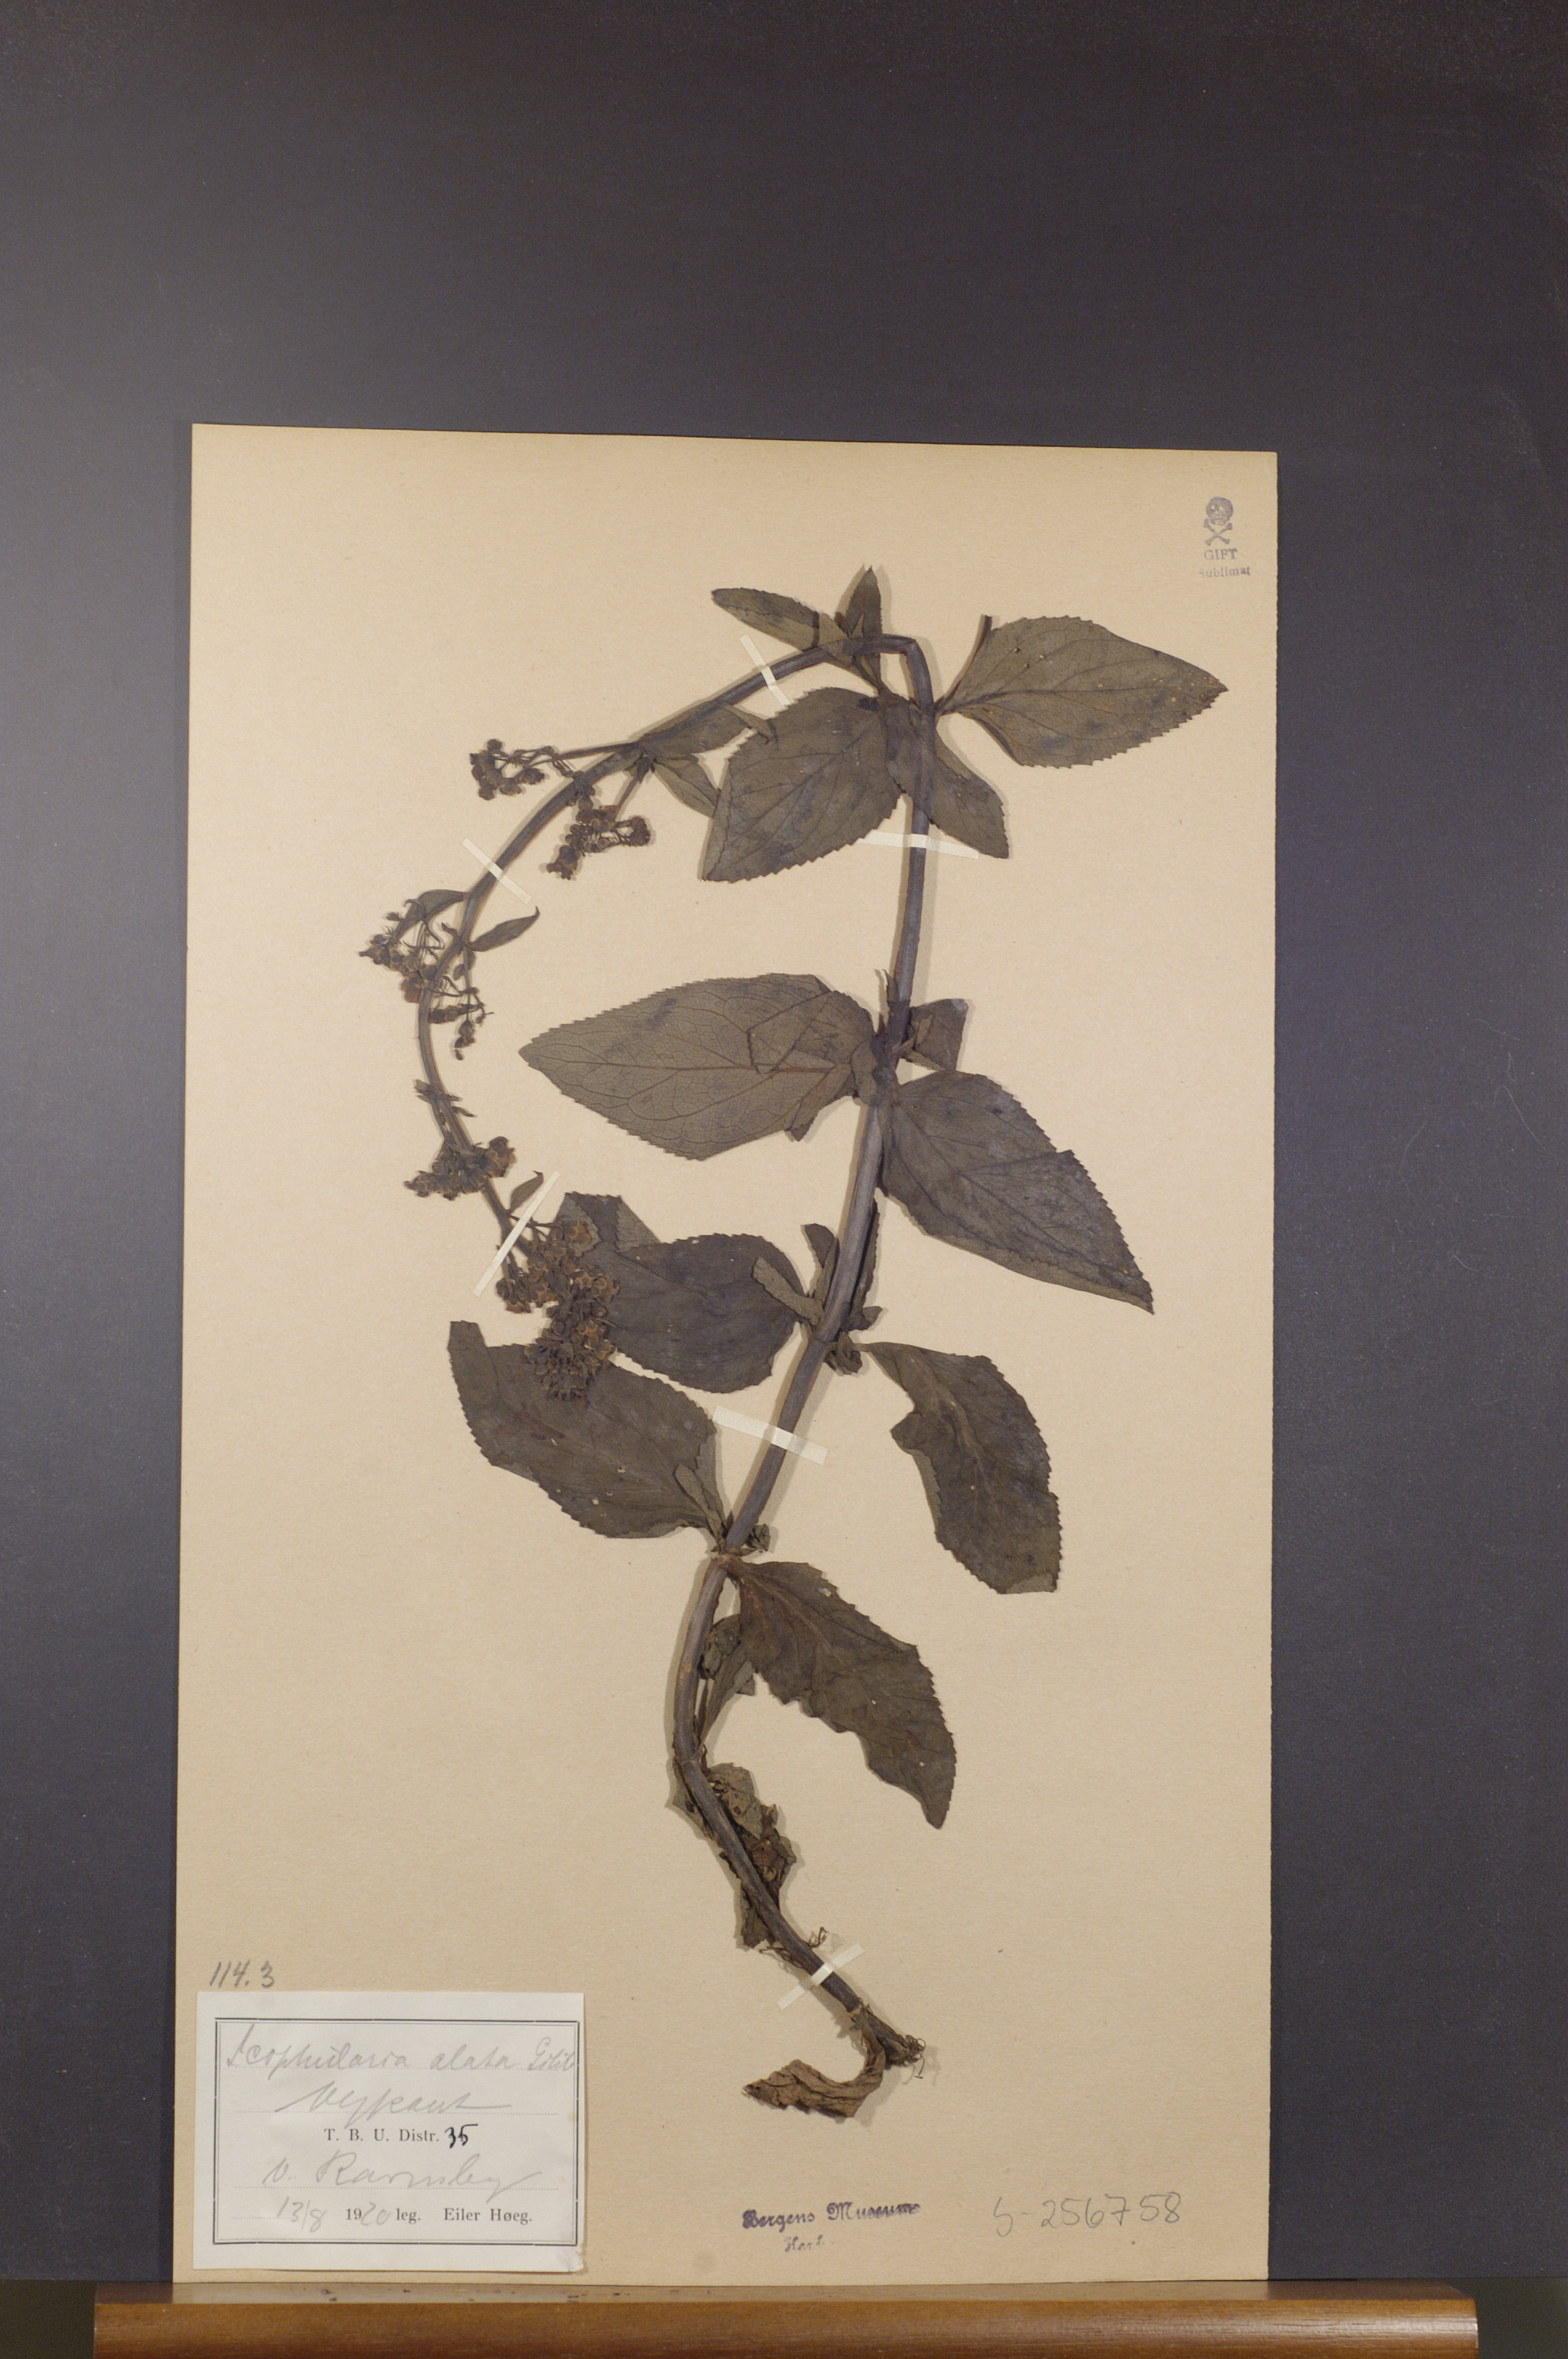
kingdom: Plantae
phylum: Tracheophyta
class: Magnoliopsida
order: Lamiales
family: Scrophulariaceae
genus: Scrophularia
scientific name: Scrophularia oblongifolia
